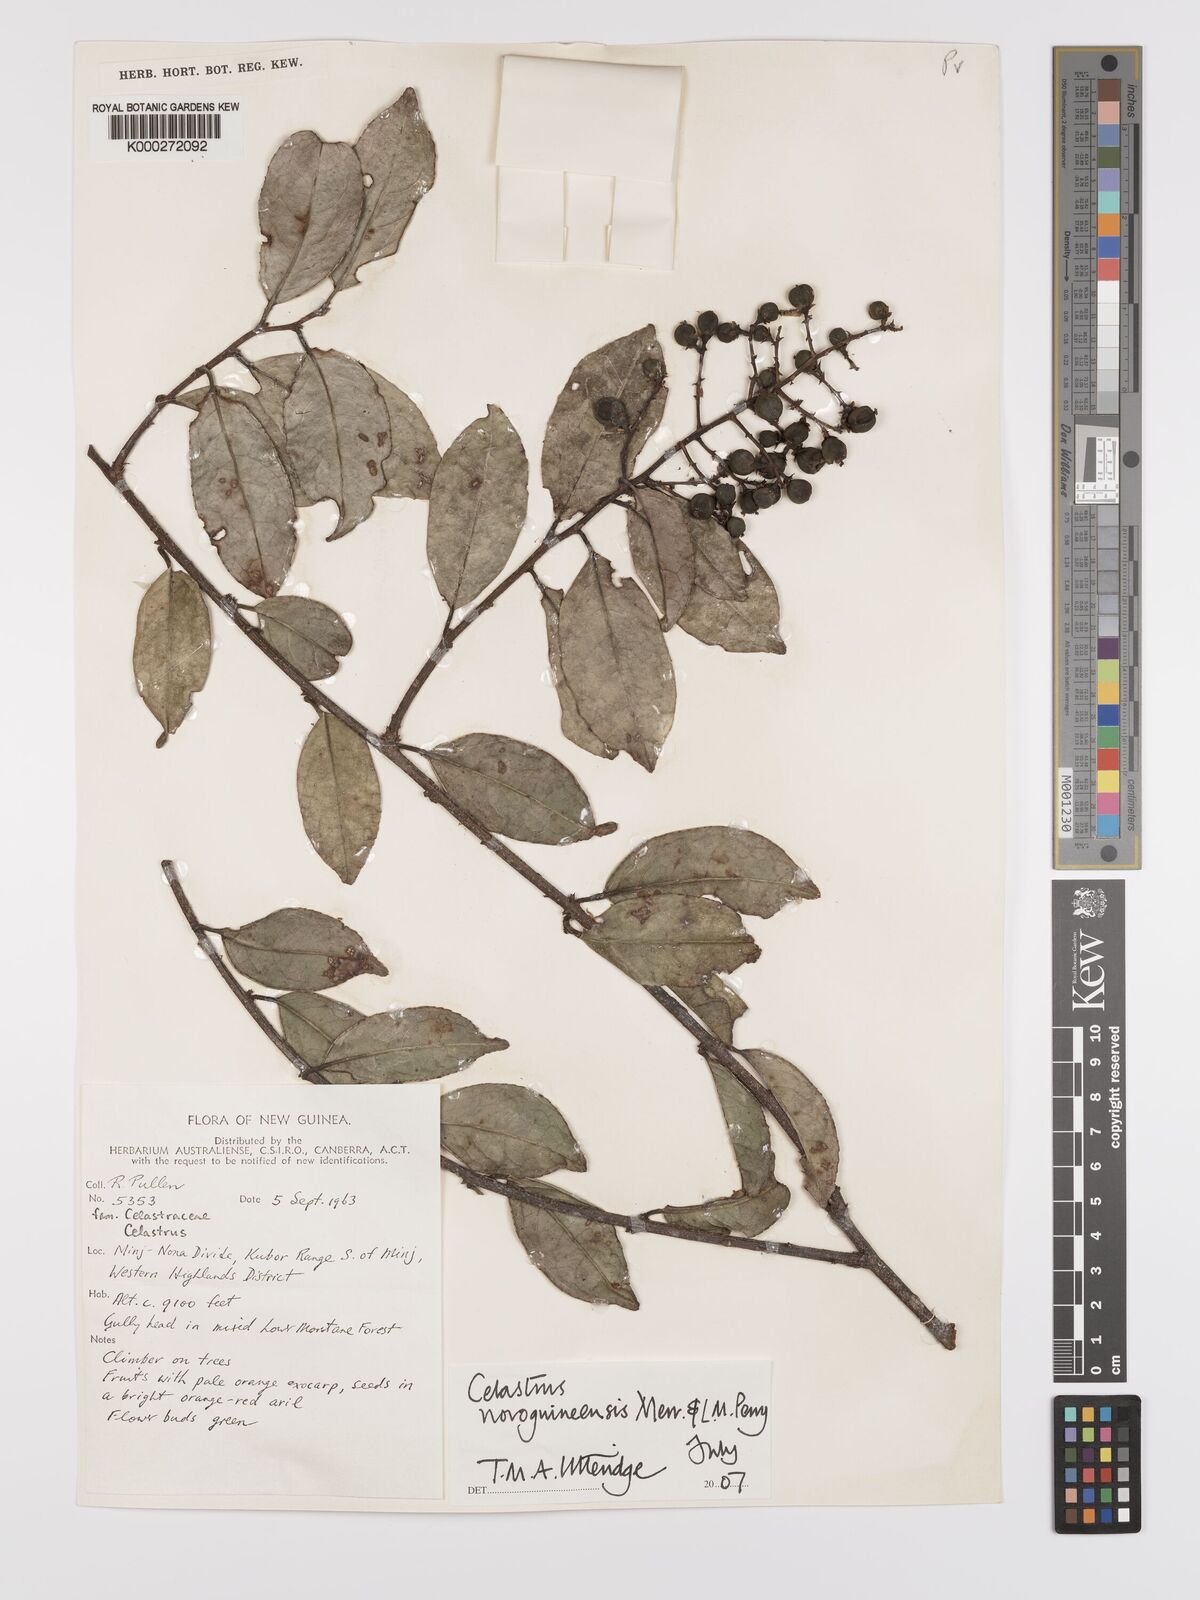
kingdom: Plantae
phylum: Tracheophyta
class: Magnoliopsida
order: Celastrales
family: Celastraceae
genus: Celastrus
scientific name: Celastrus novoguineensis
